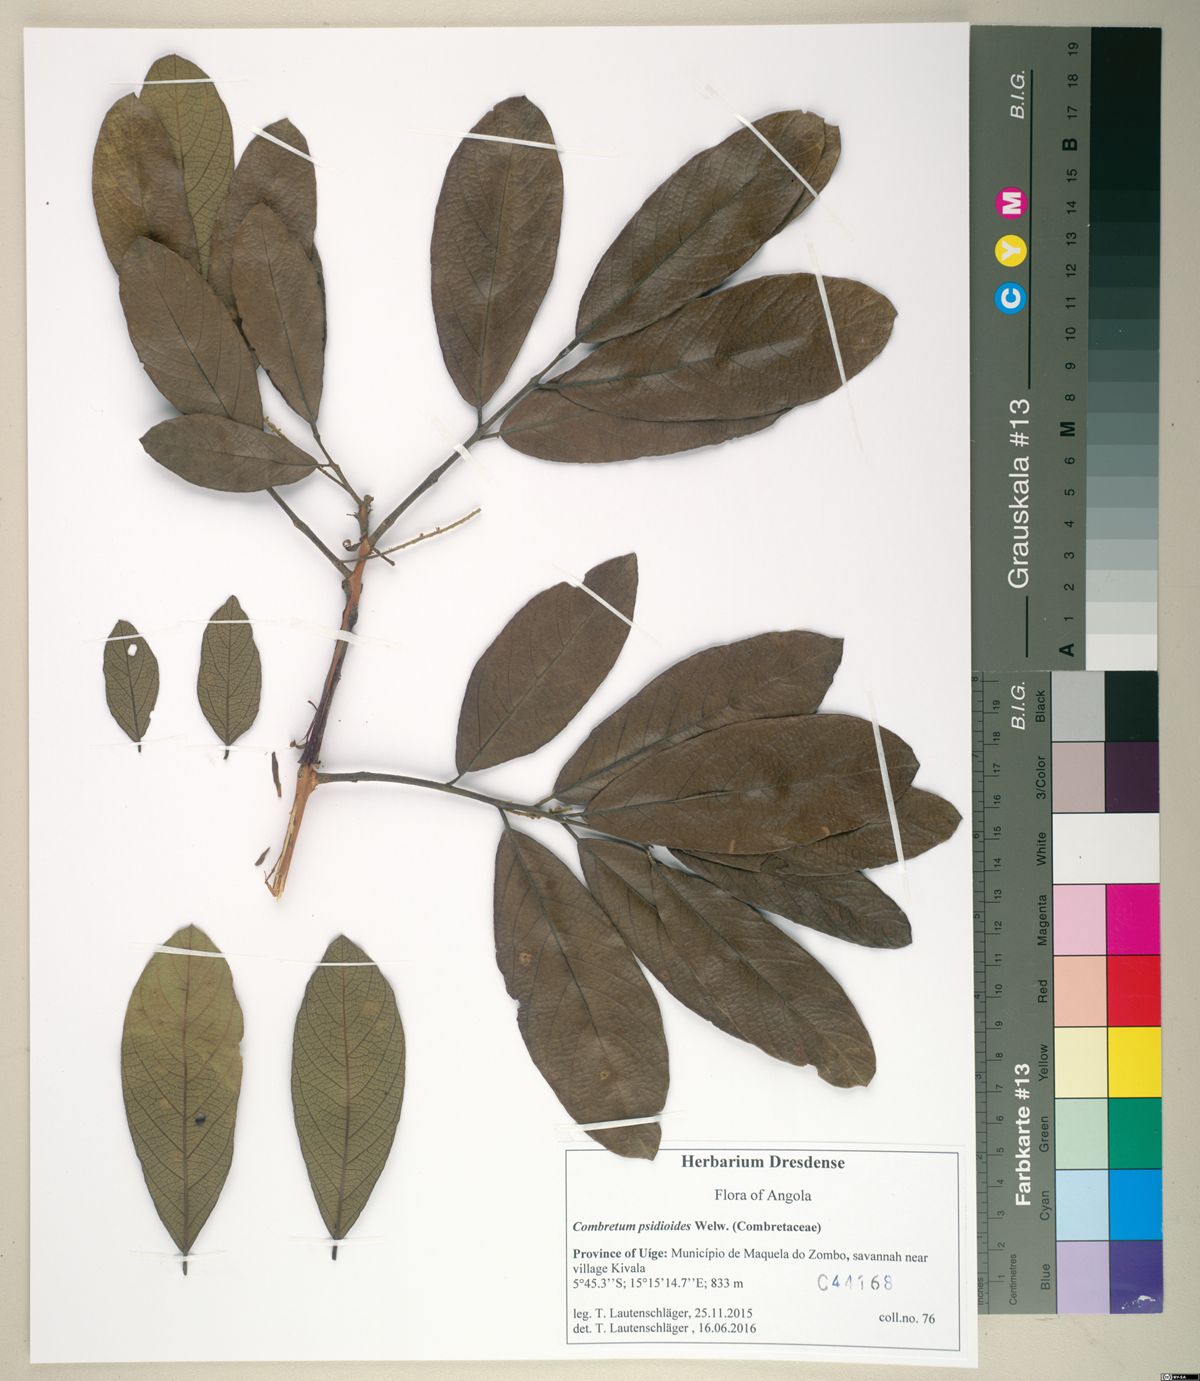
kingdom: Plantae
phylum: Tracheophyta
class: Magnoliopsida
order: Myrtales
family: Combretaceae
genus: Combretum
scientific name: Combretum psidioides
